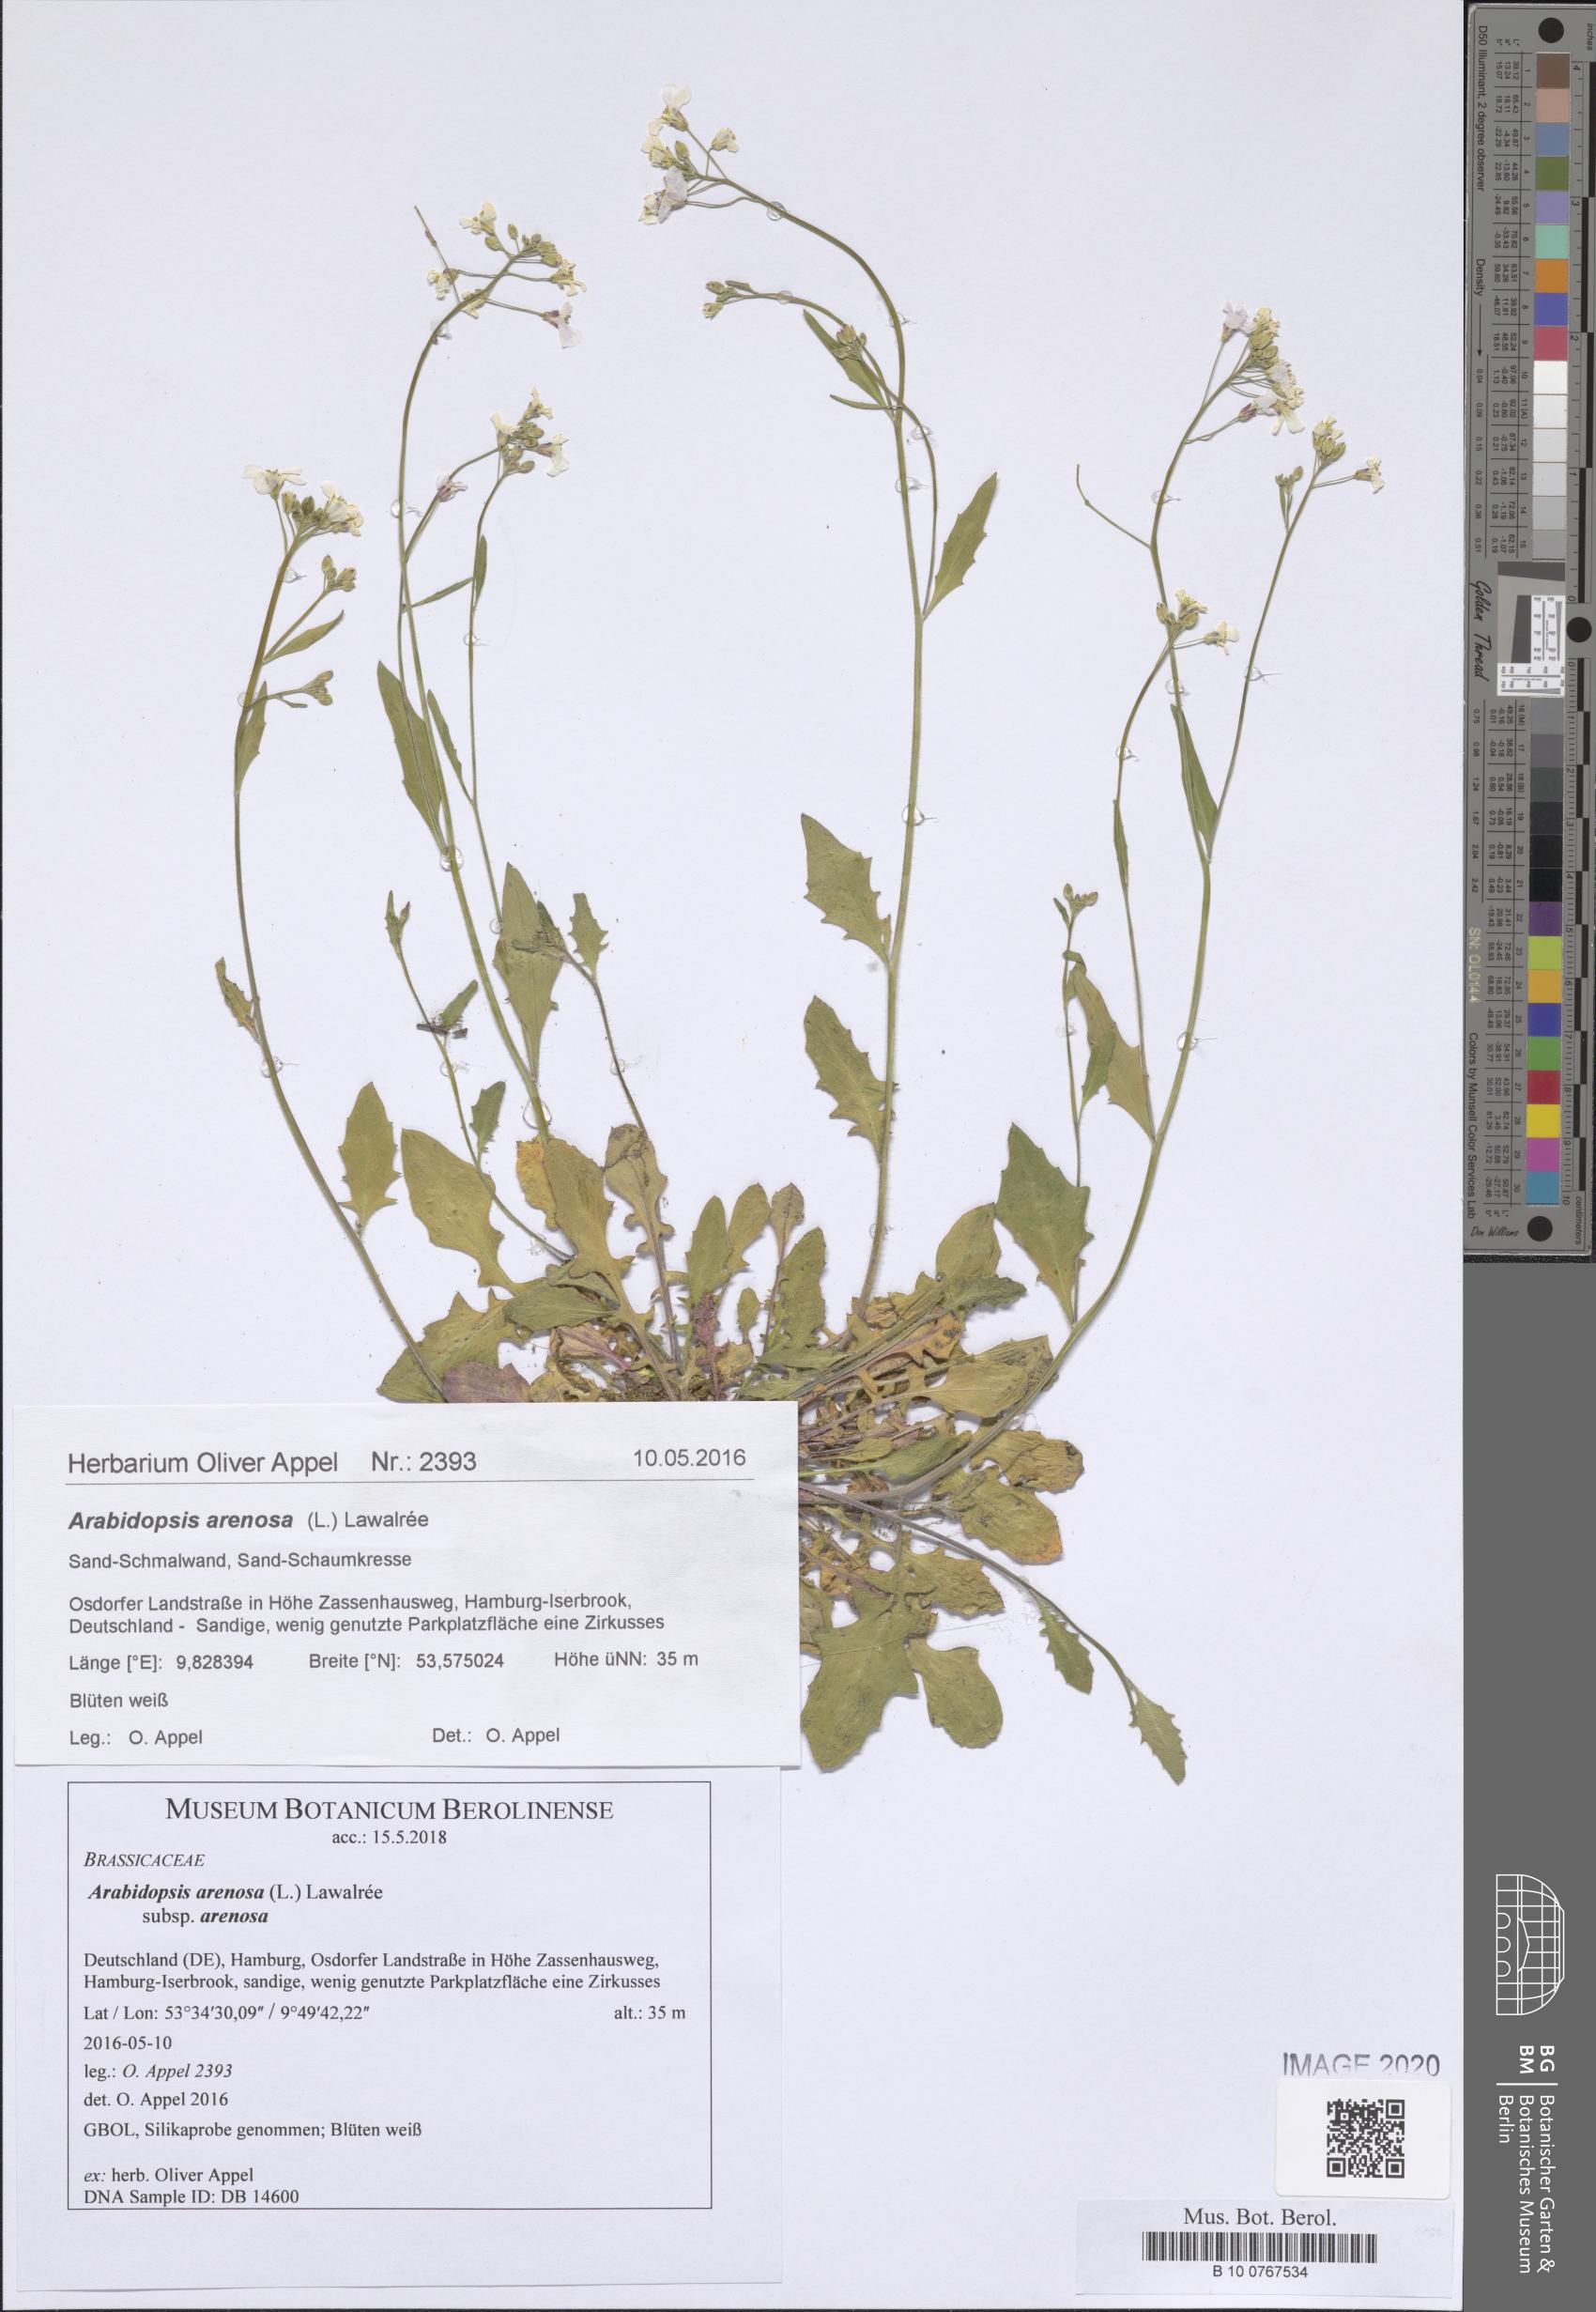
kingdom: Plantae
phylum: Tracheophyta
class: Magnoliopsida
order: Brassicales
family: Brassicaceae
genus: Arabidopsis
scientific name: Arabidopsis arenosa
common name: Sand rock-cress
